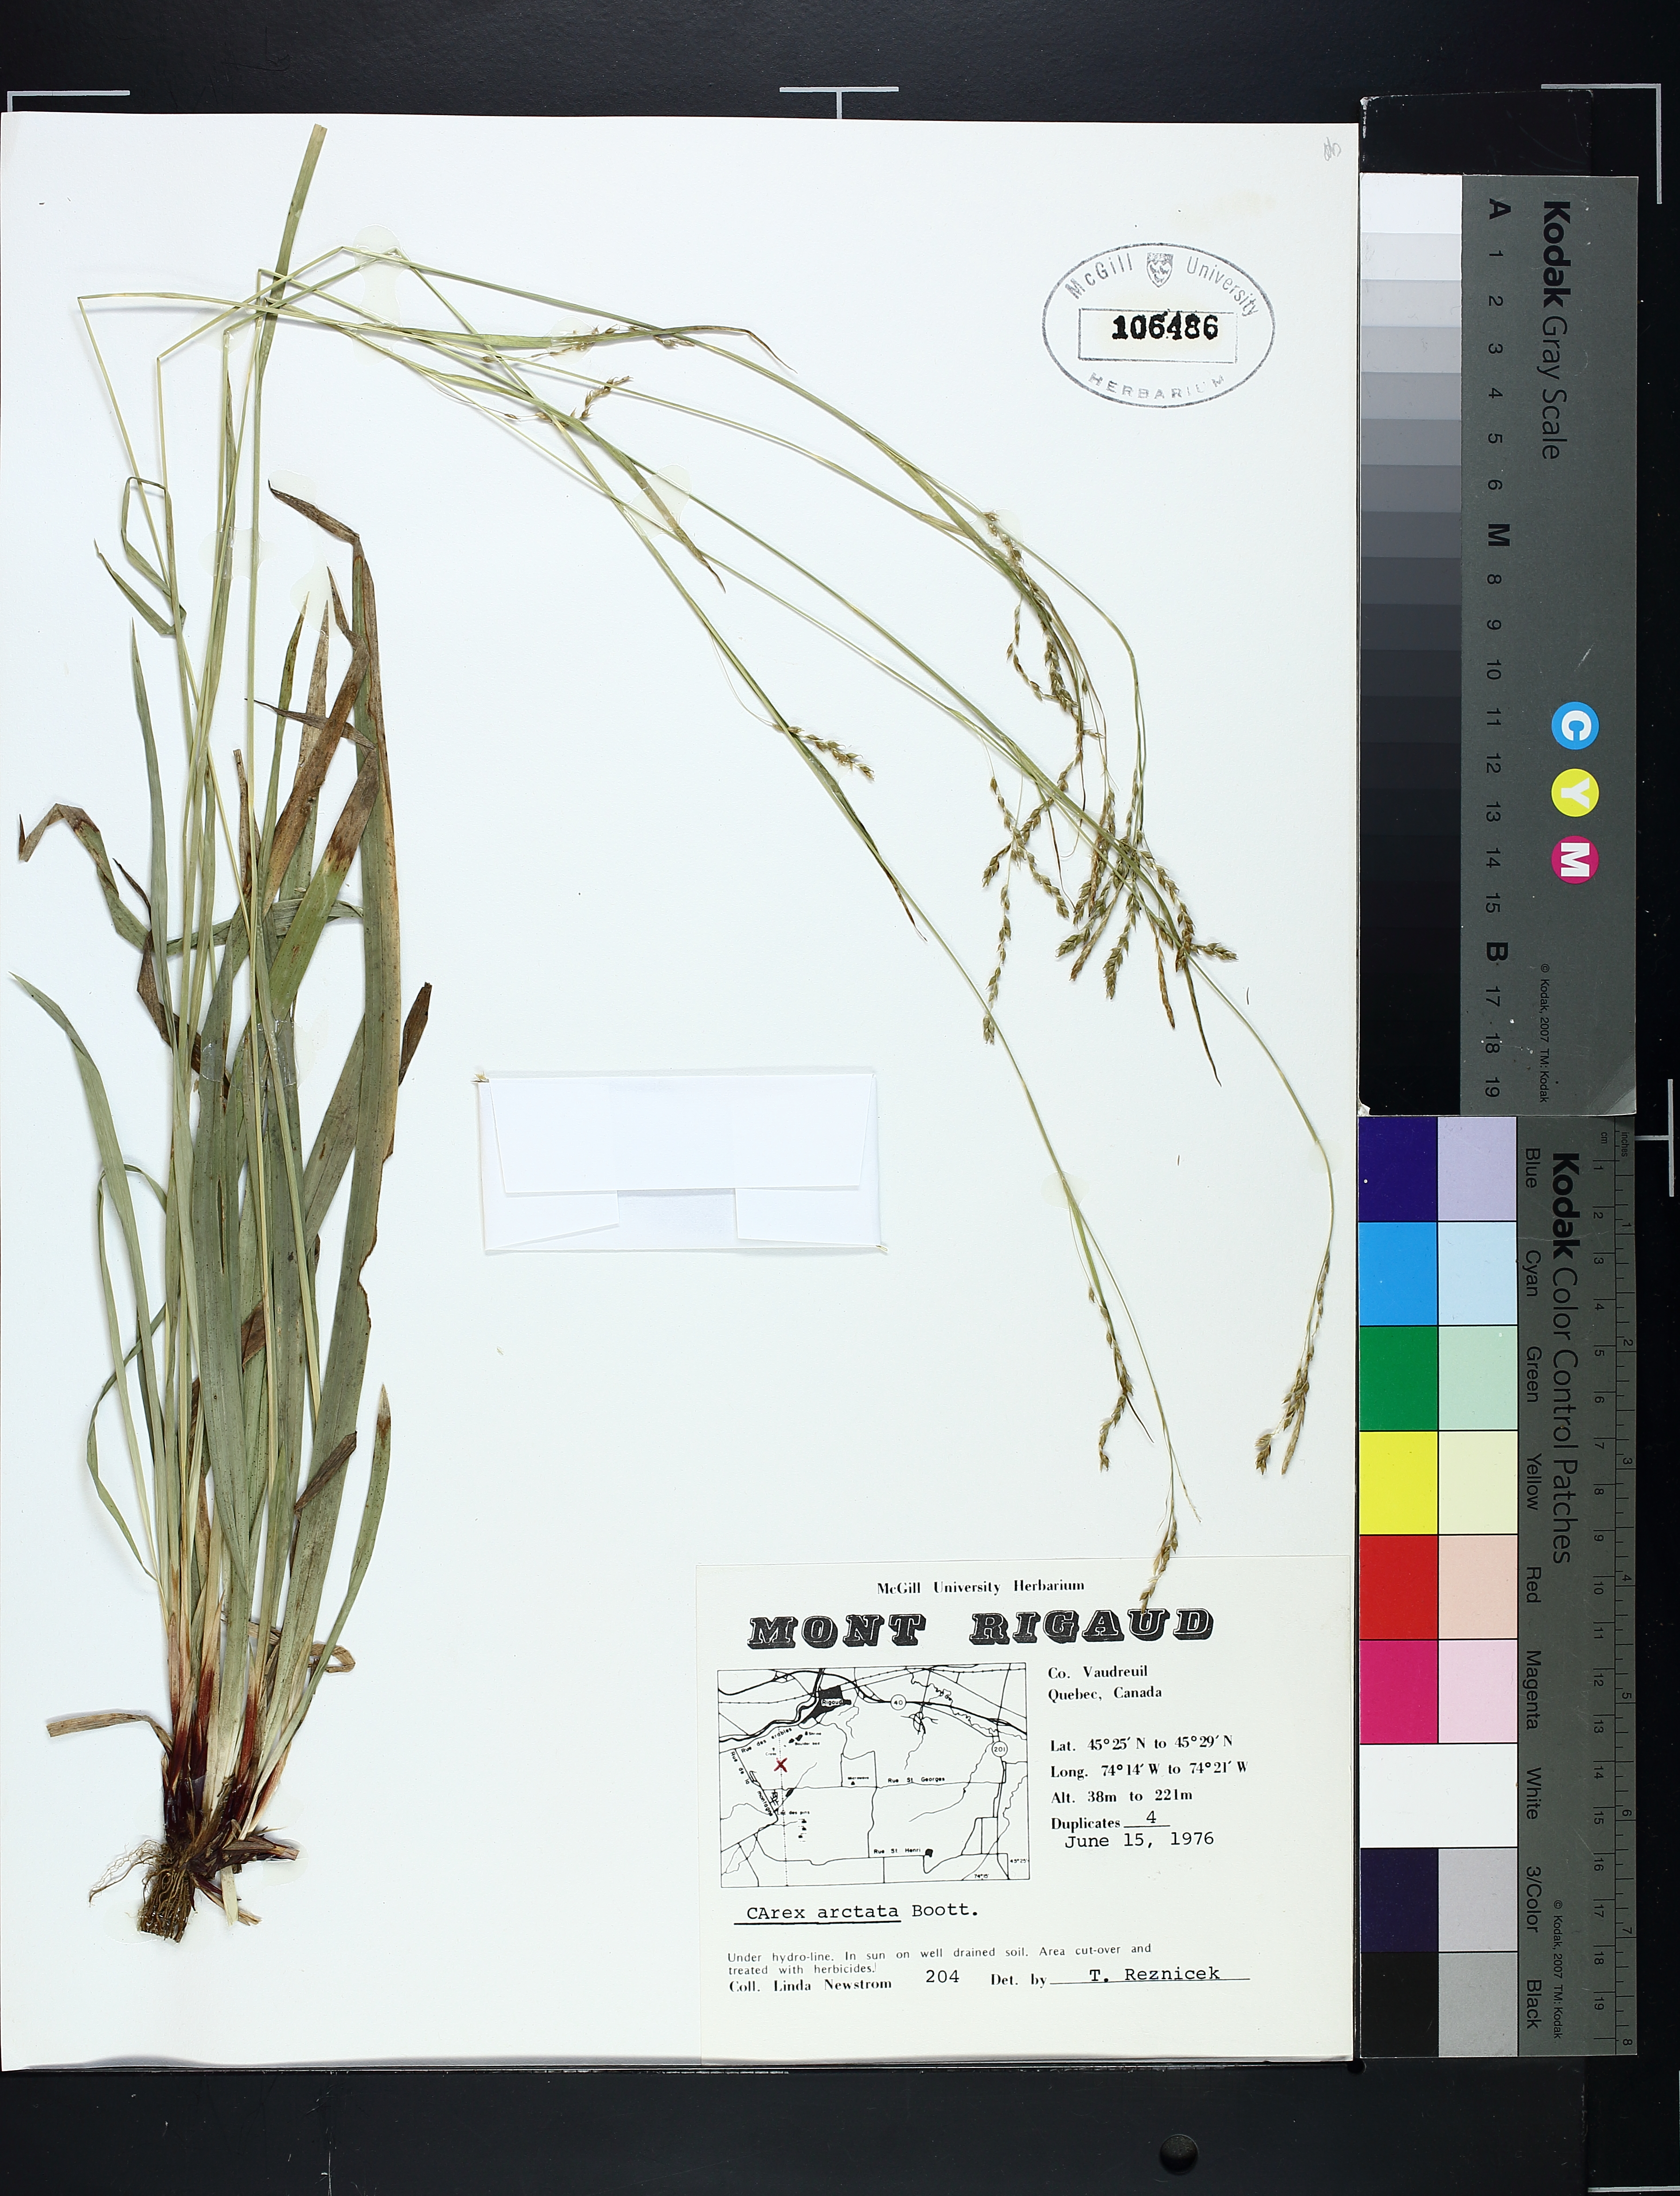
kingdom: Plantae
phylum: Tracheophyta
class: Liliopsida
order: Poales
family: Cyperaceae
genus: Carex
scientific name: Carex arctata
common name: Black sedge
